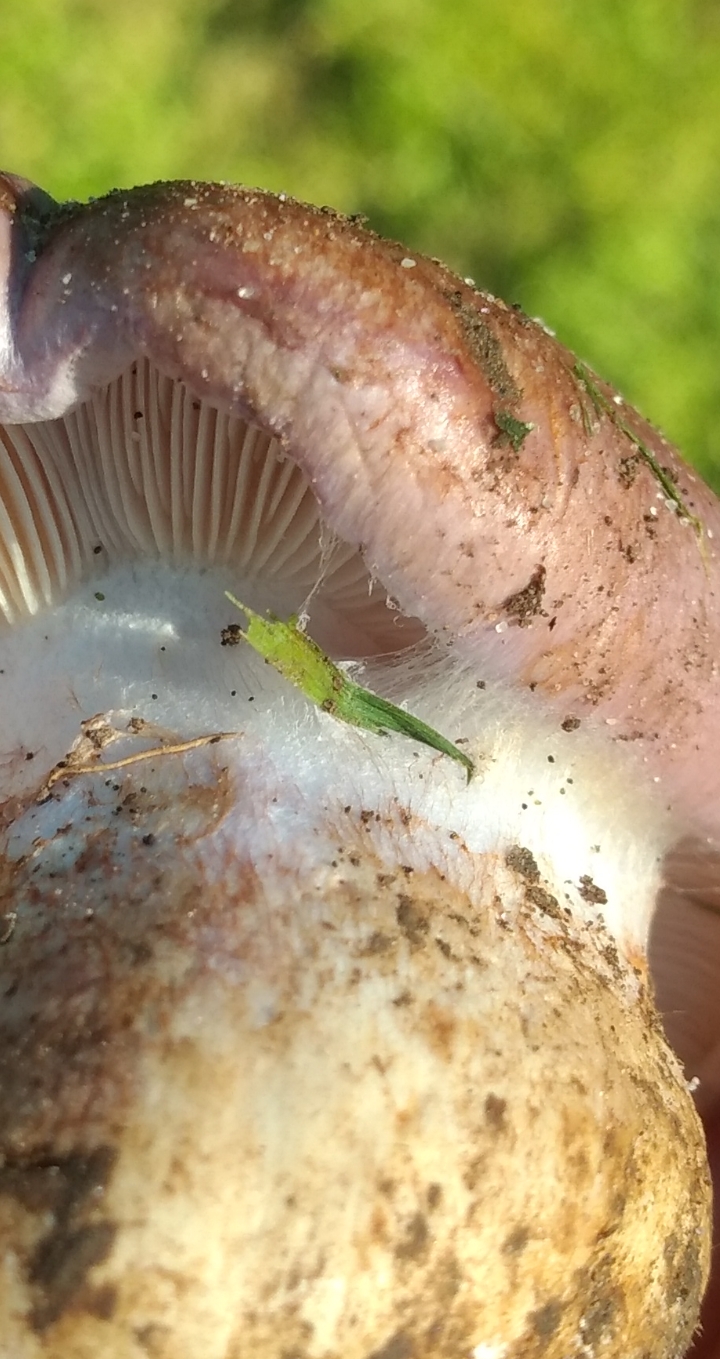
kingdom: Fungi
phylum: Basidiomycota
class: Agaricomycetes
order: Agaricales
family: Cortinariaceae
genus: Phlegmacium
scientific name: Phlegmacium balteatocumatile
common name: violettrådet slørhat
